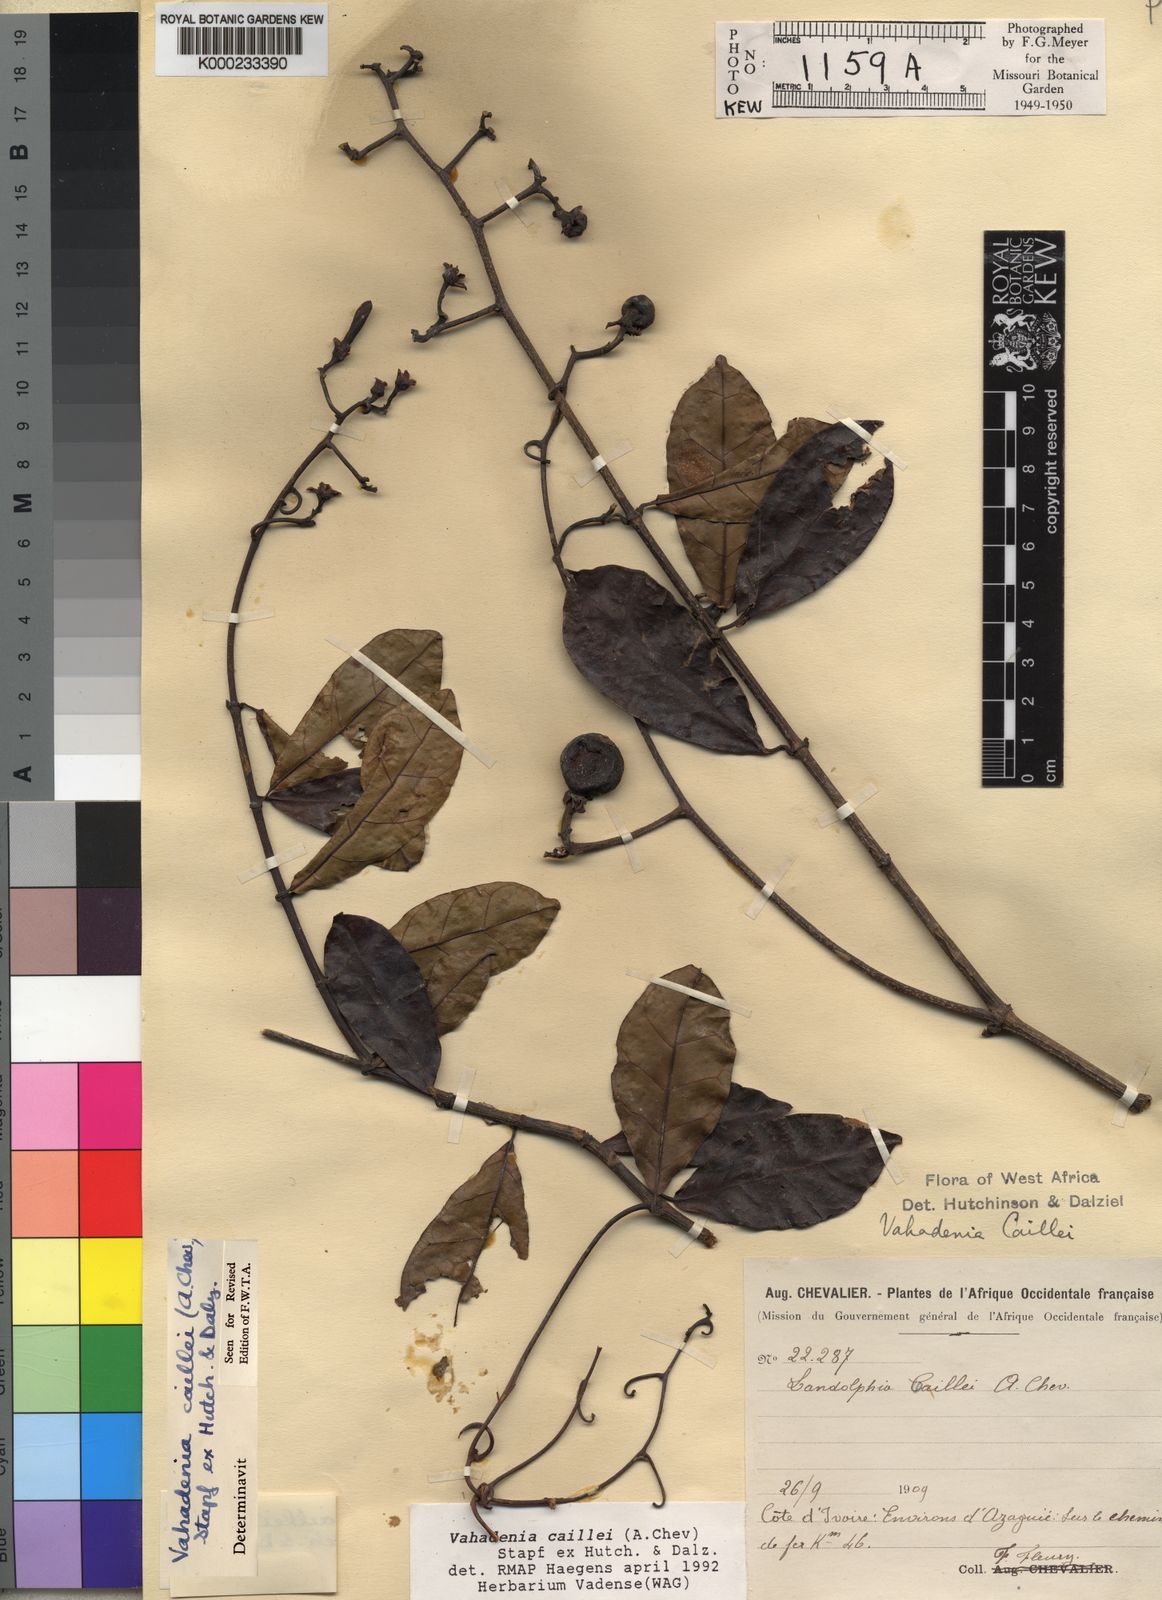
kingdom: Plantae
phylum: Tracheophyta
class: Magnoliopsida
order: Gentianales
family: Apocynaceae
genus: Vahadenia
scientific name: Vahadenia caillei
